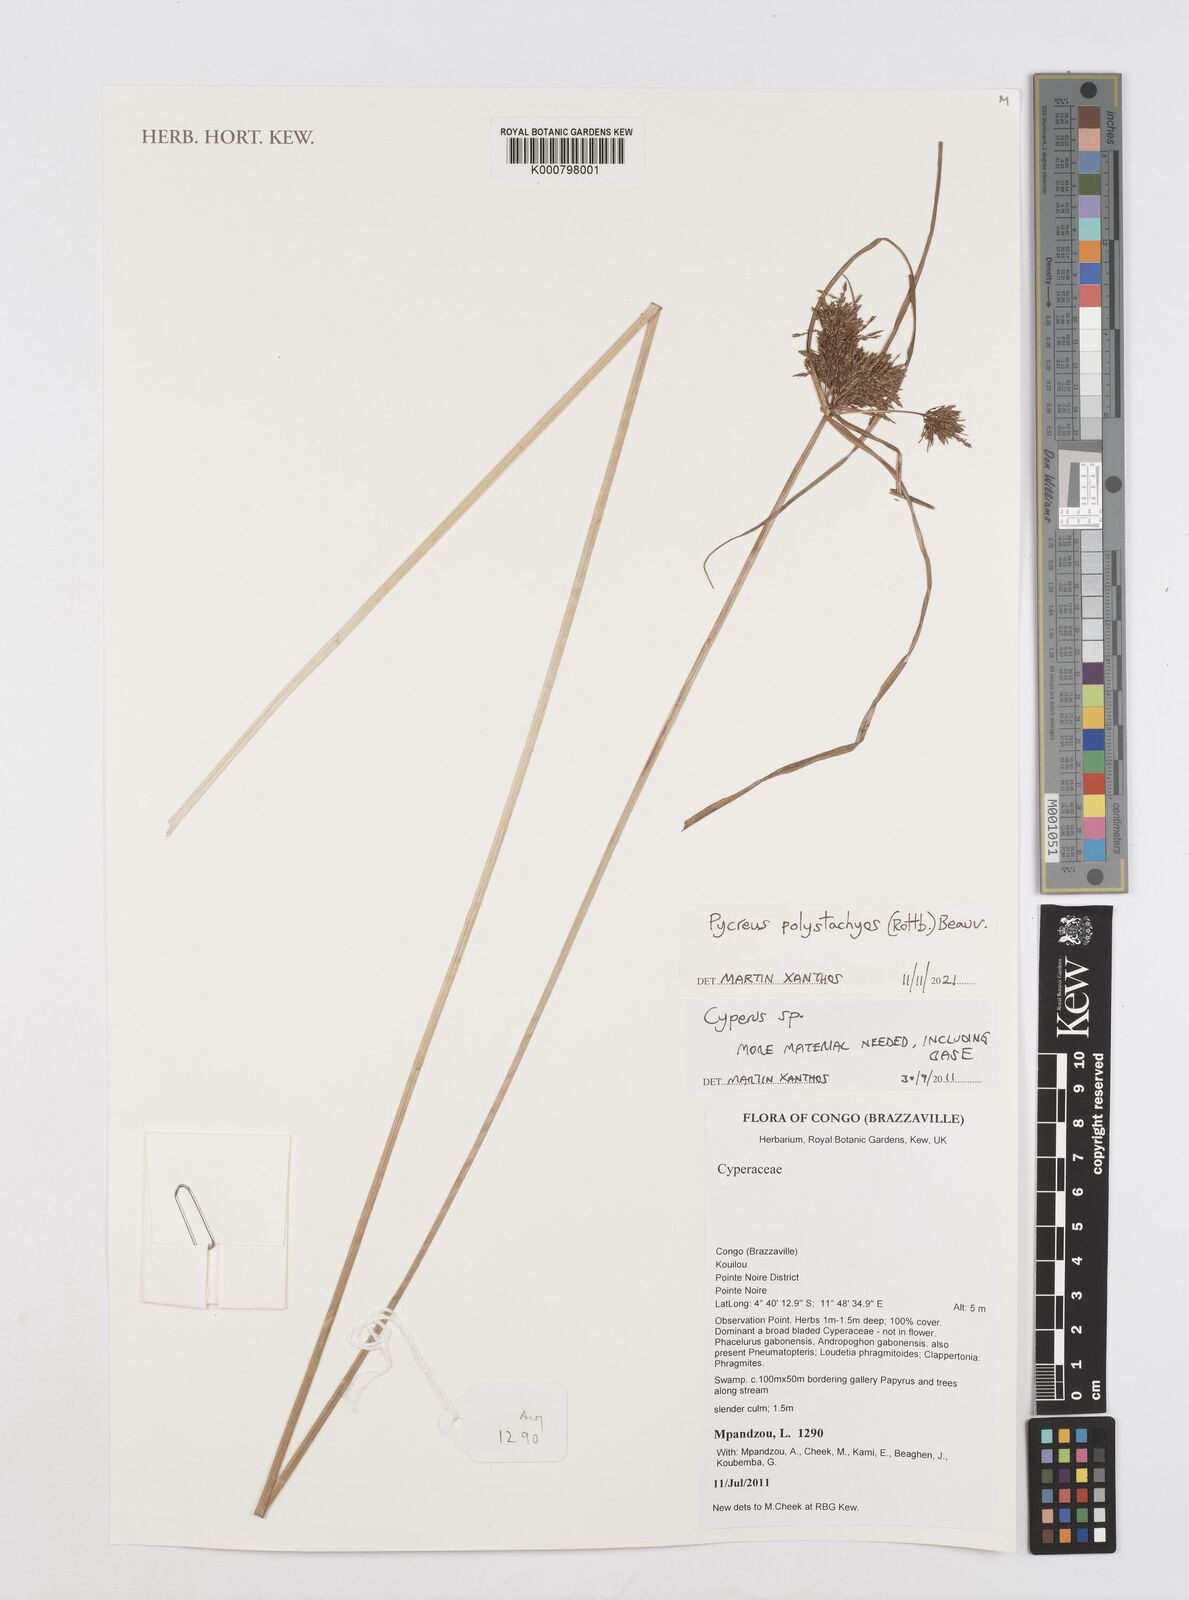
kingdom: Plantae
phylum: Tracheophyta
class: Liliopsida
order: Poales
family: Cyperaceae
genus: Cyperus
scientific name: Cyperus polystachyos
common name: Bunchy flat sedge
